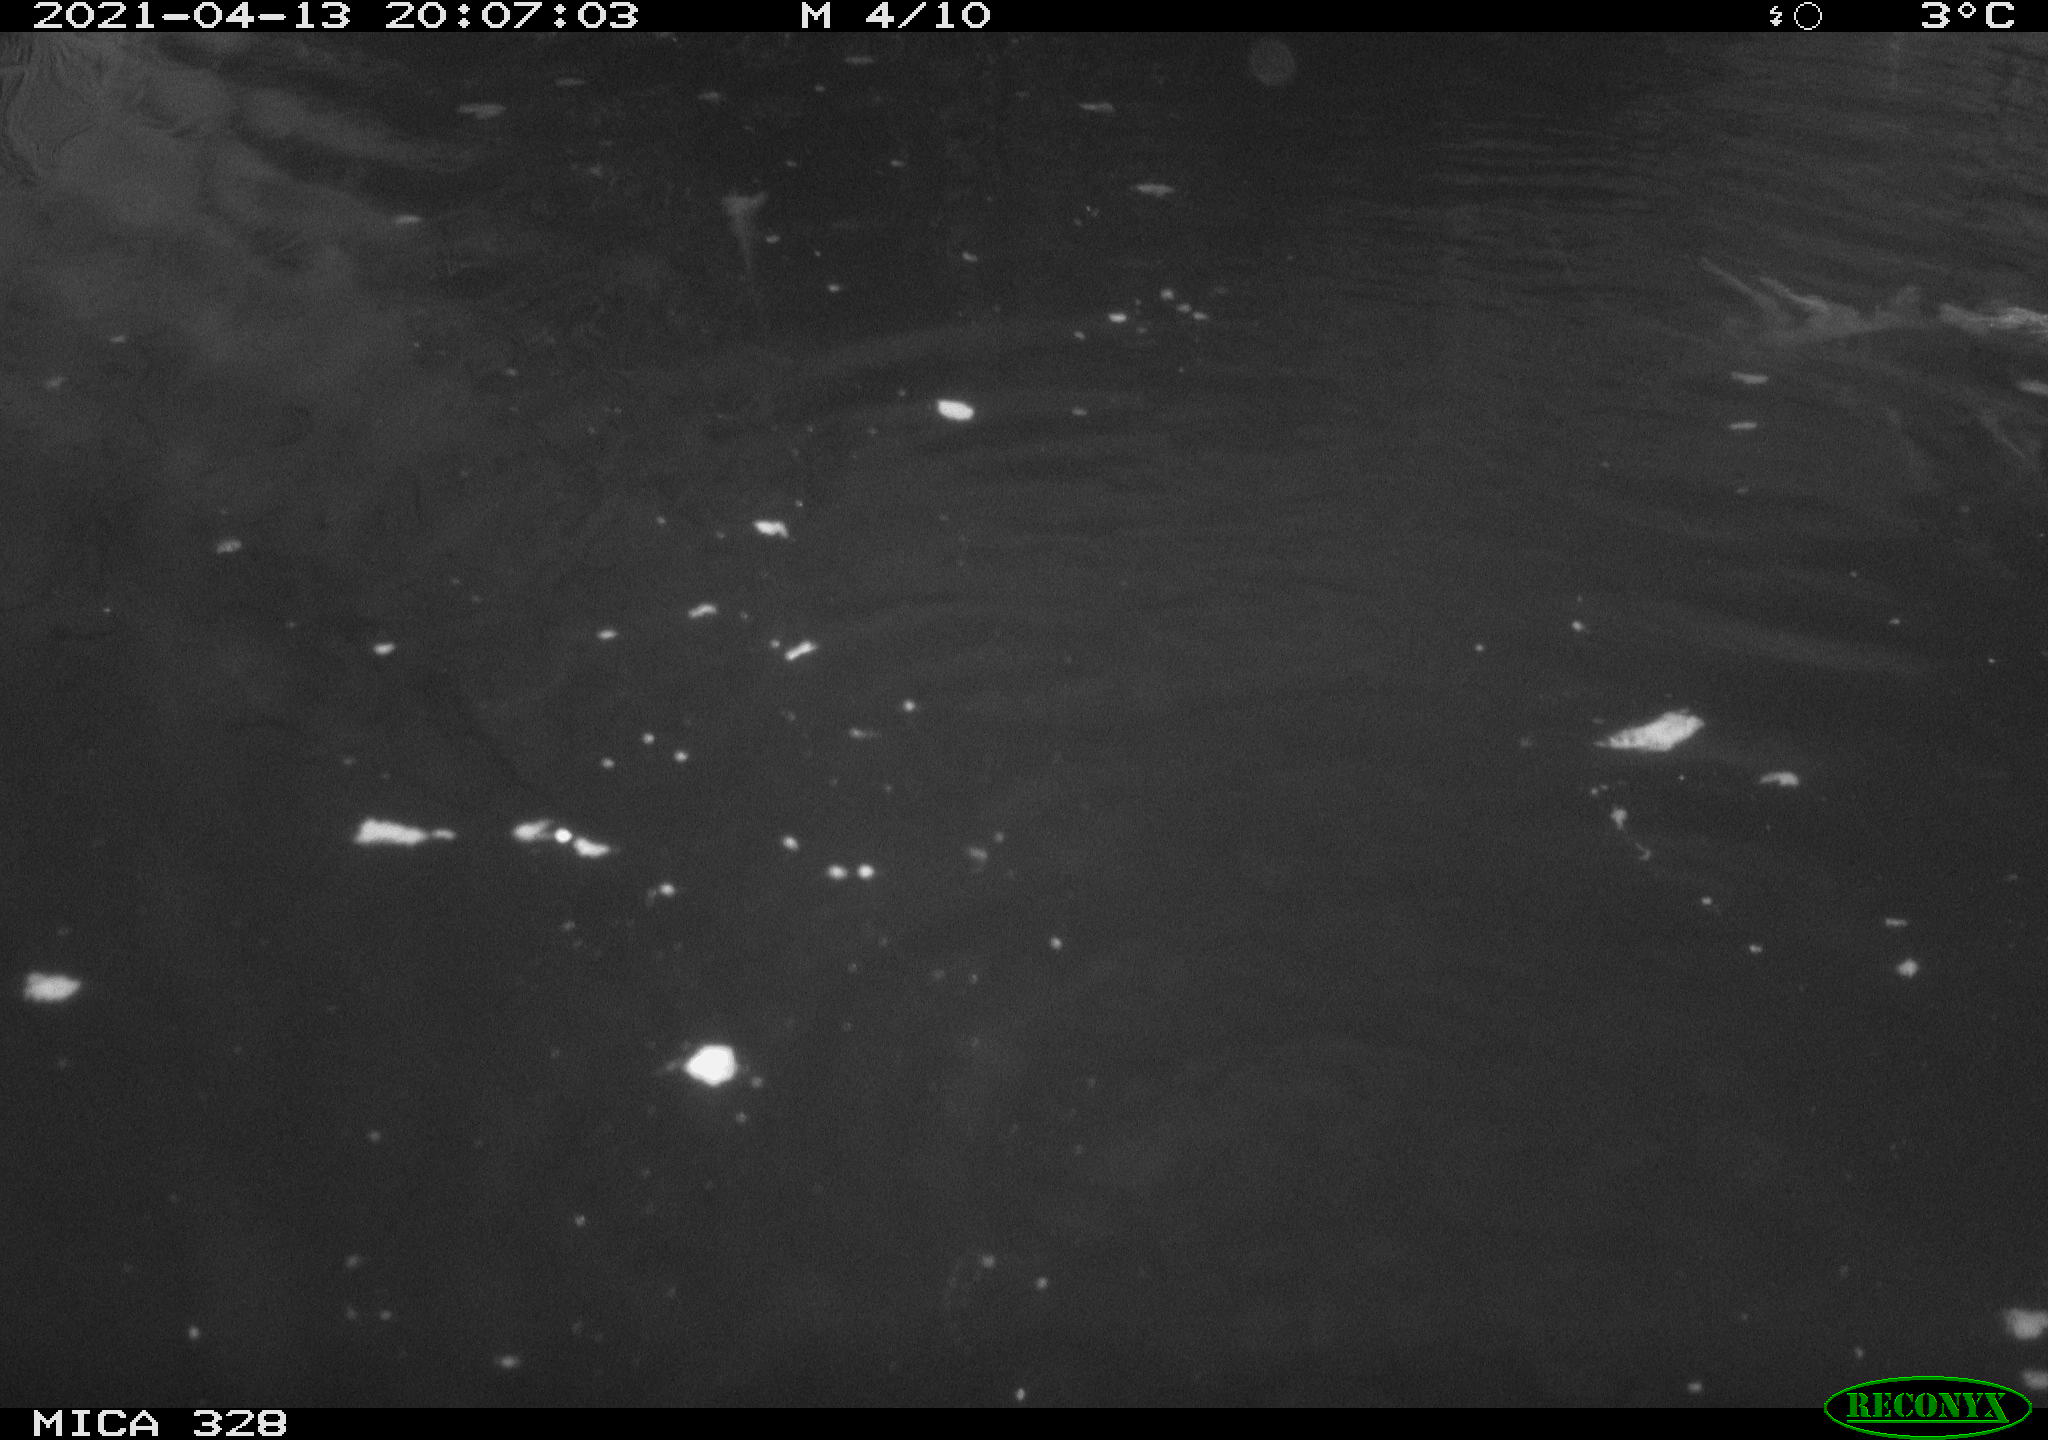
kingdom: Animalia
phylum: Chordata
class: Mammalia
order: Rodentia
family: Cricetidae
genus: Ondatra
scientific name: Ondatra zibethicus
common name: Muskrat
